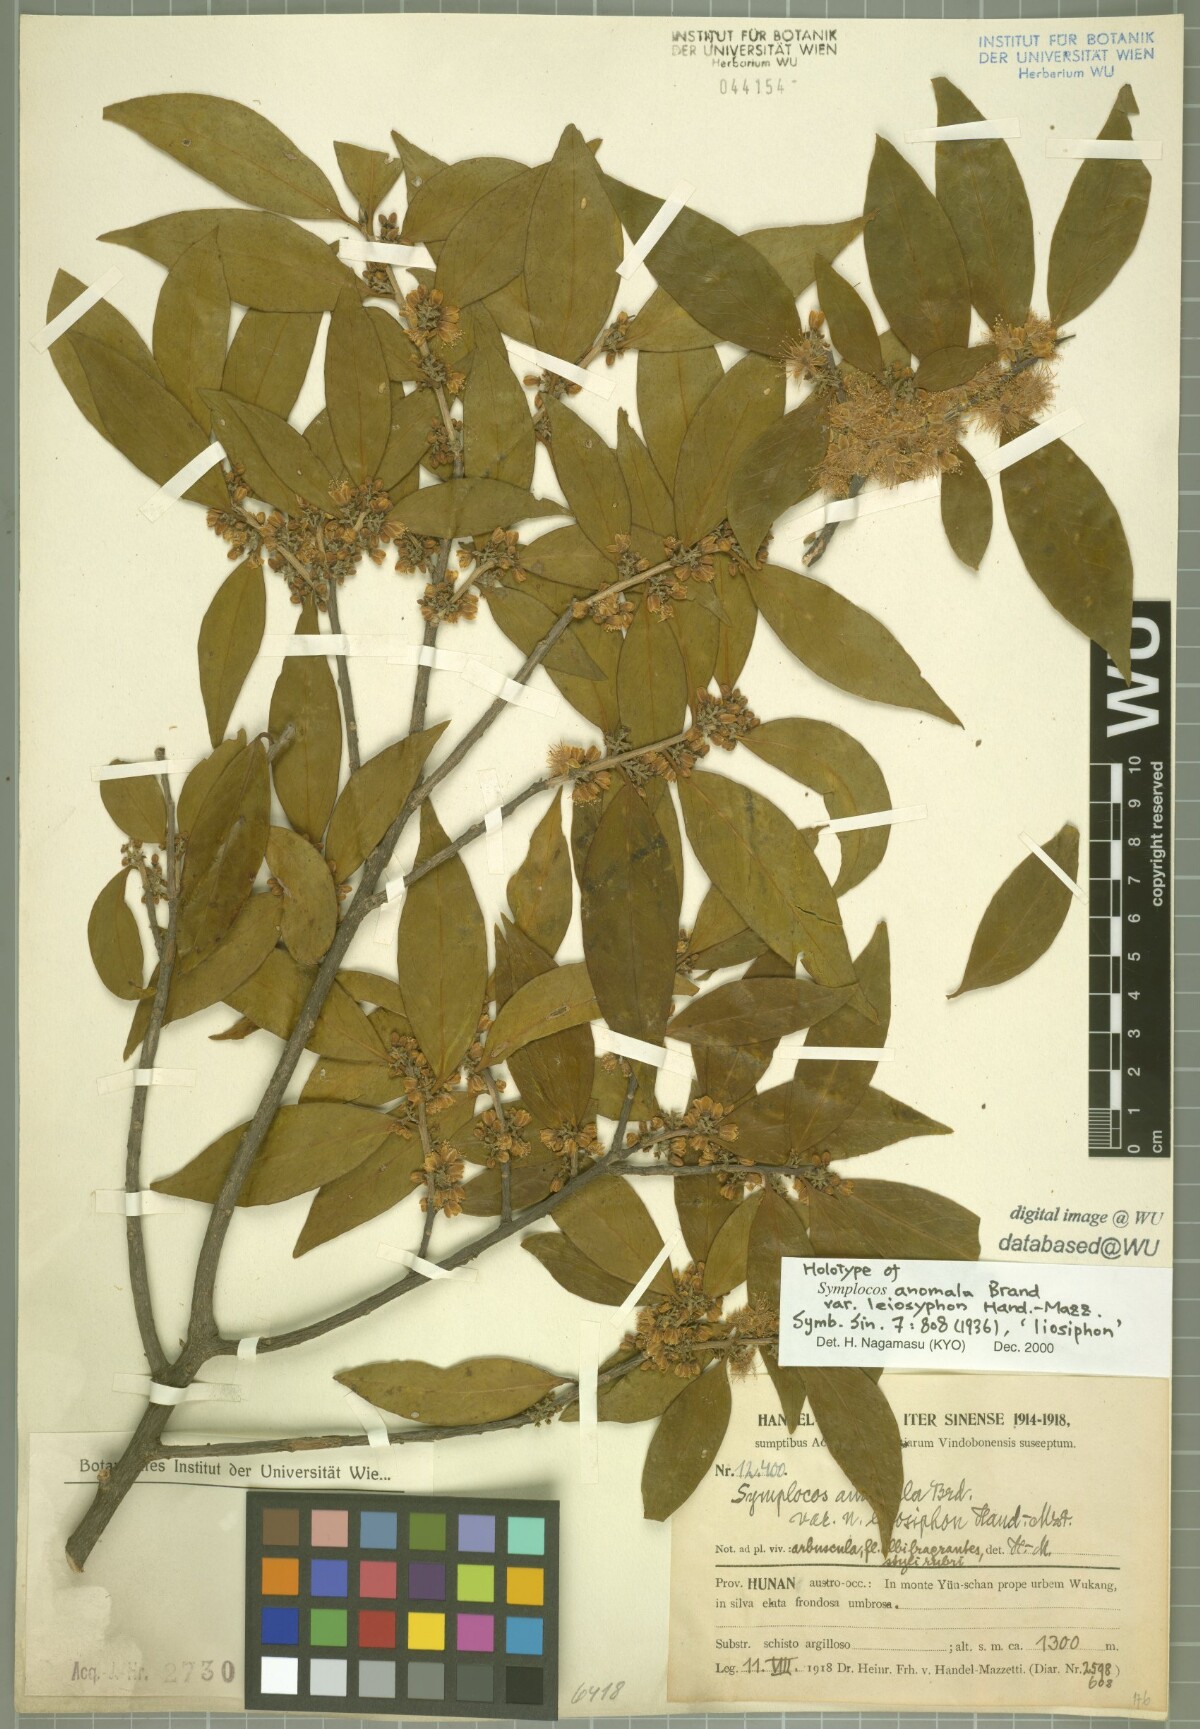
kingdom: Plantae
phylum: Tracheophyta
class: Magnoliopsida
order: Ericales
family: Symplocaceae
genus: Symplocos
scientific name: Symplocos anomala
